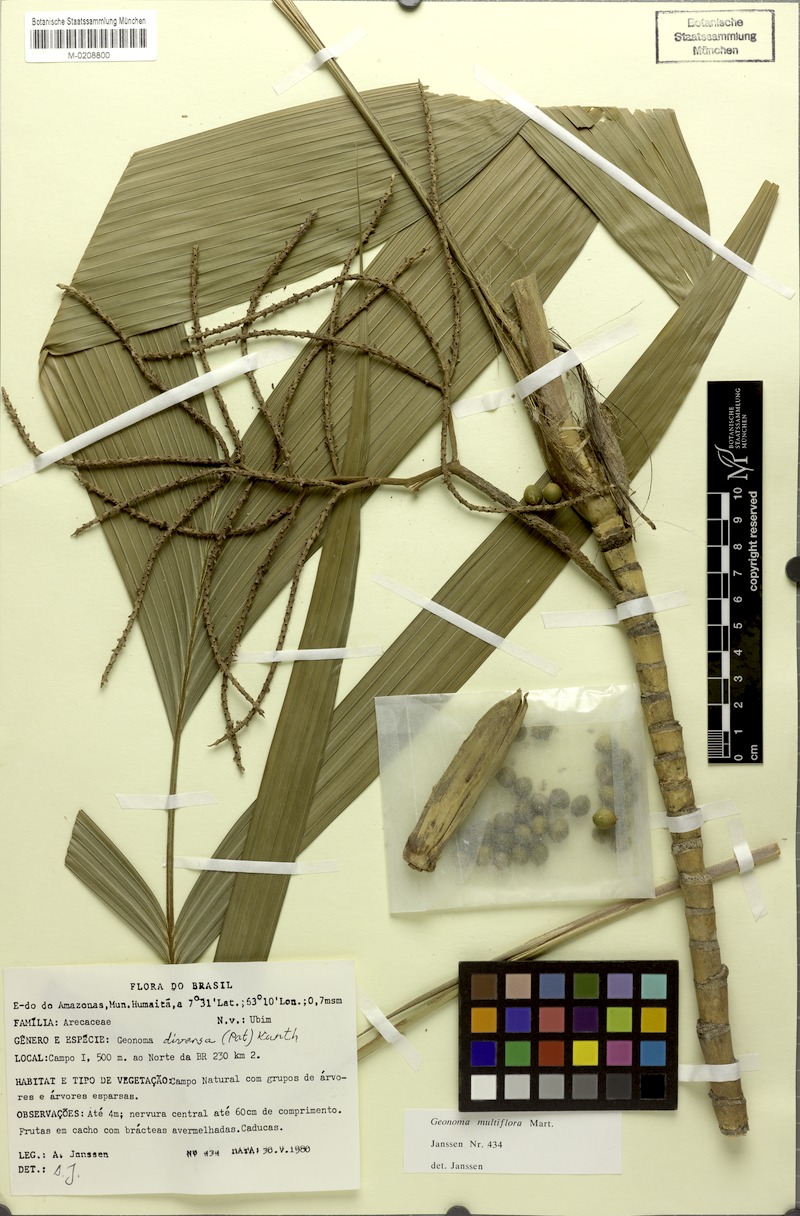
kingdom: Plantae
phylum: Tracheophyta
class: Liliopsida
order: Arecales
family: Arecaceae
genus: Geonoma
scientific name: Geonoma maxima
